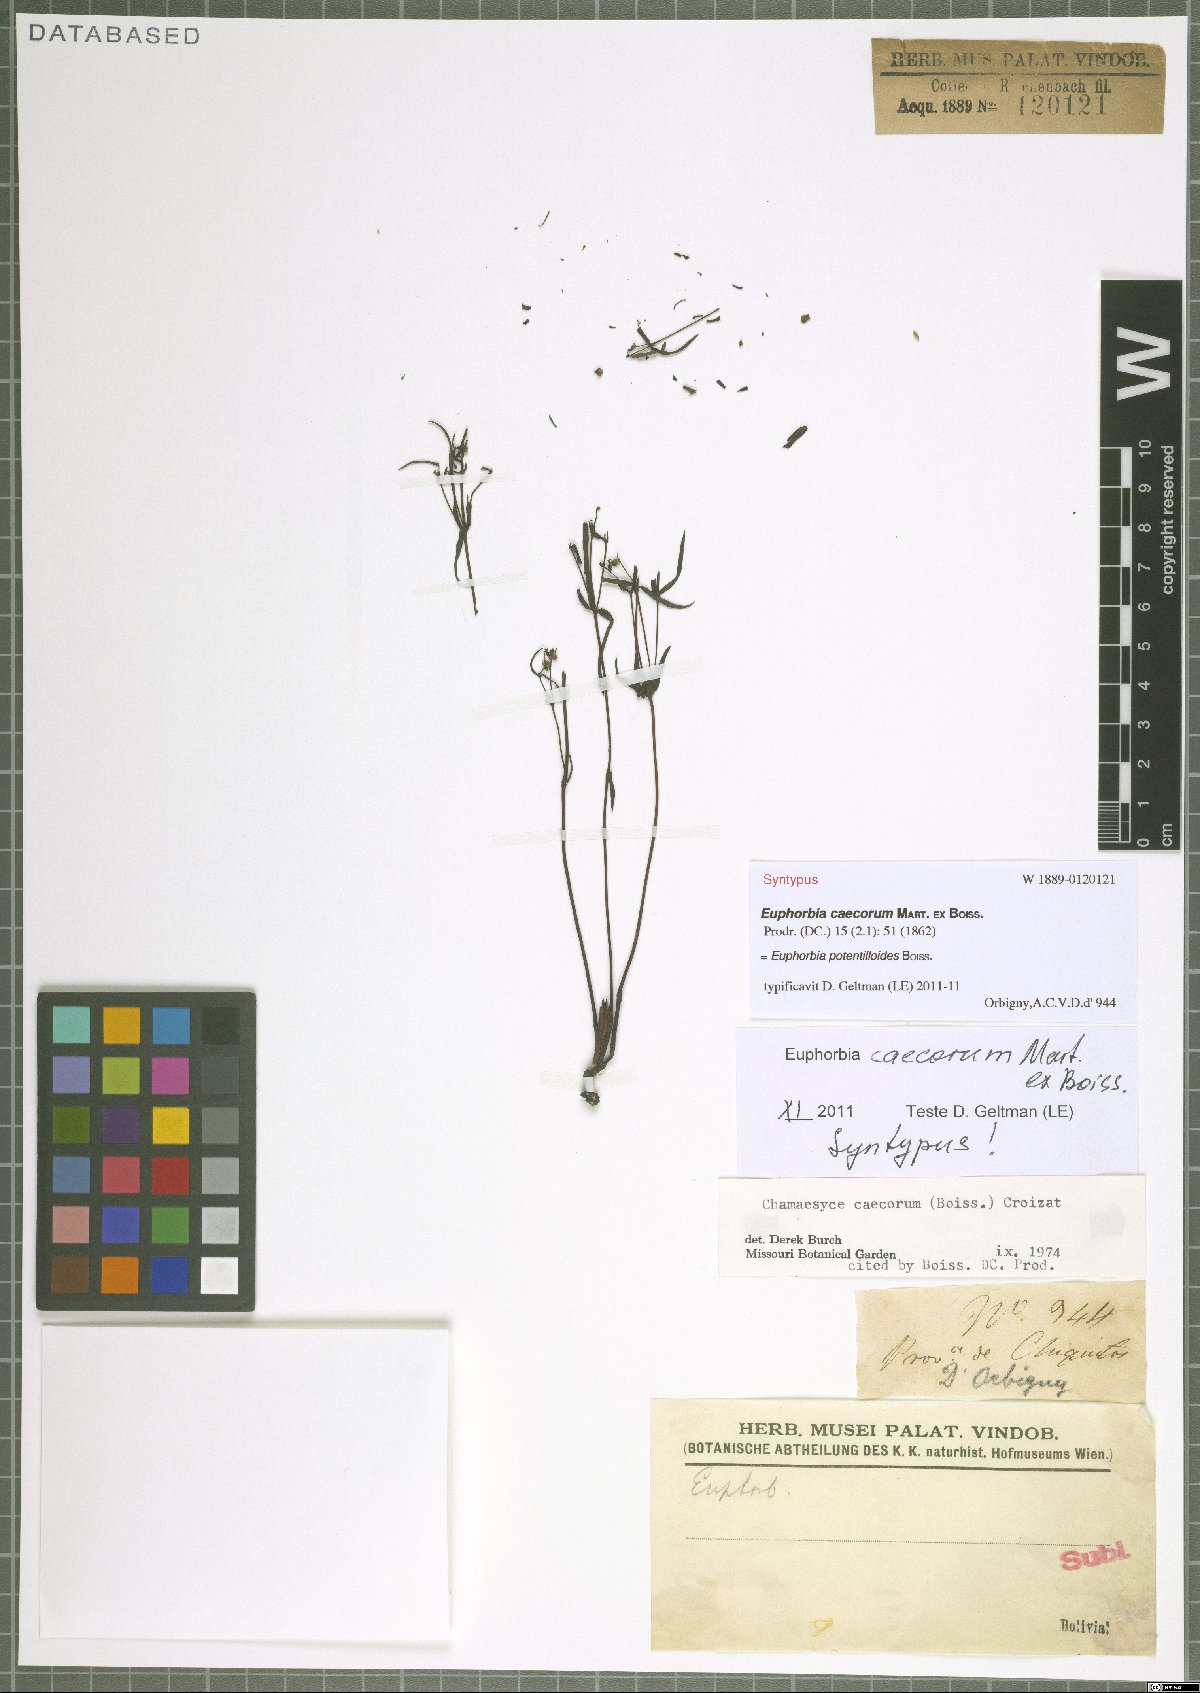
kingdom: Plantae
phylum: Tracheophyta
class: Magnoliopsida
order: Malpighiales
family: Euphorbiaceae
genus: Euphorbia
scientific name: Euphorbia potentilloides
